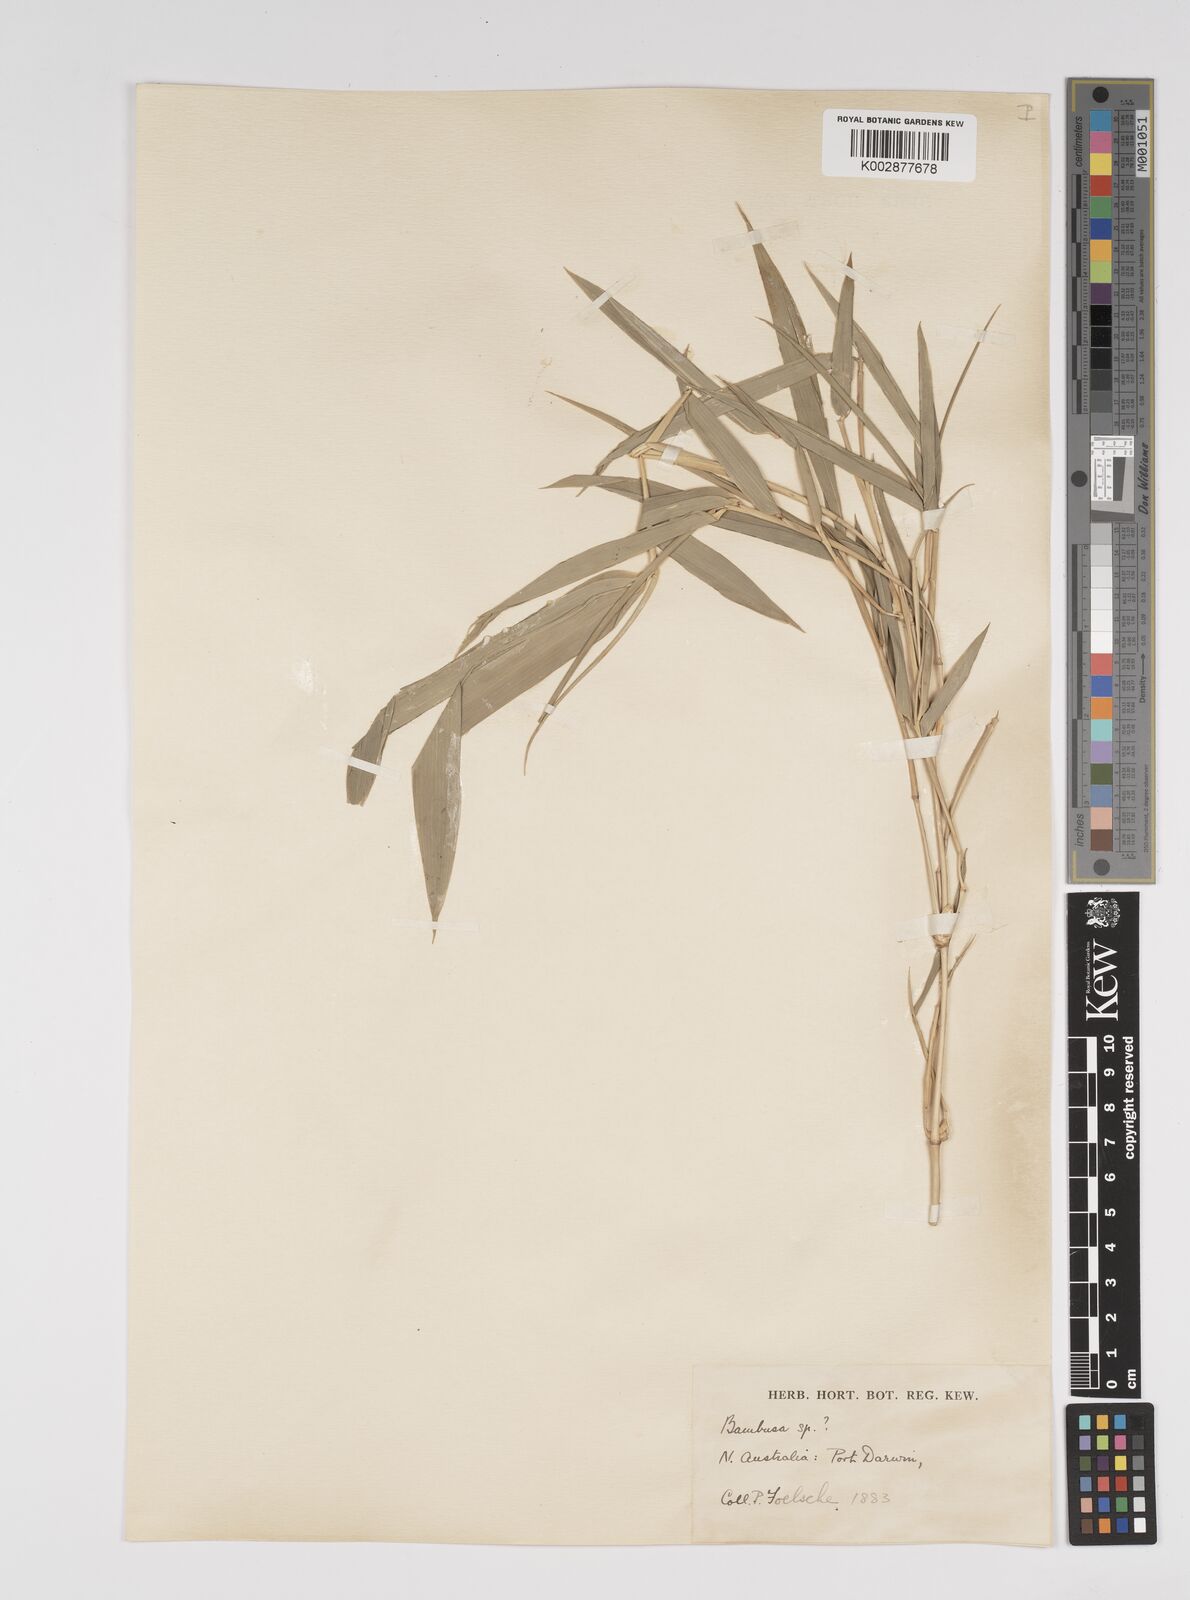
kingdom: Plantae
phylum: Tracheophyta
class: Liliopsida
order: Poales
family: Poaceae
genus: Bambusa
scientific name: Bambusa
